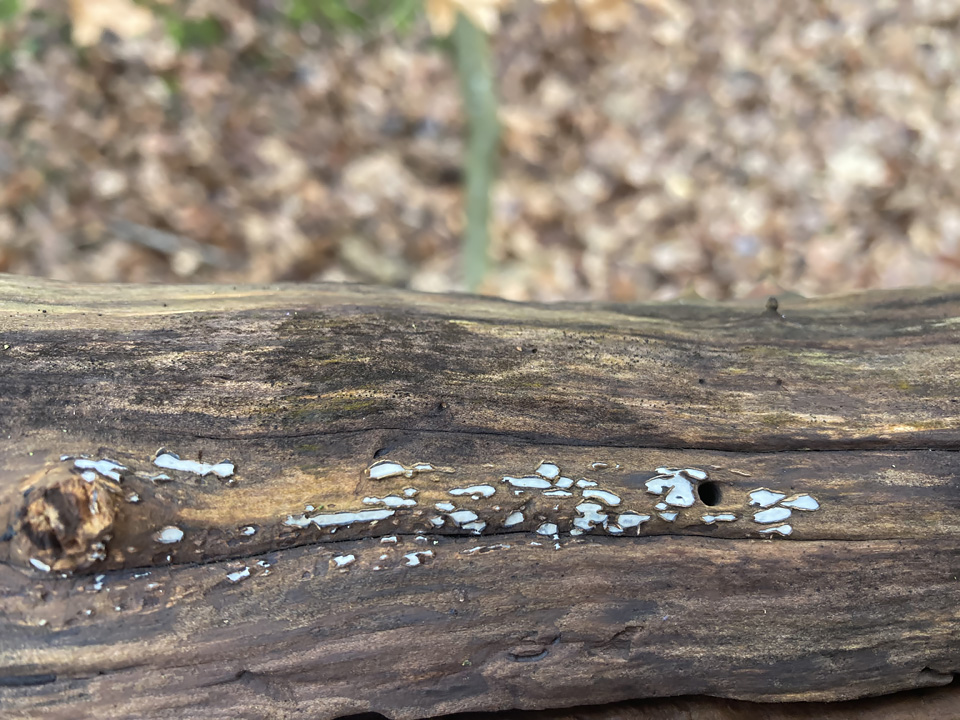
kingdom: Fungi
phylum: Ascomycota
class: Leotiomycetes
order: Chaetomellales
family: Marthamycetaceae
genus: Propolis
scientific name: Propolis farinosa
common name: almindelig vedsprængerskive
